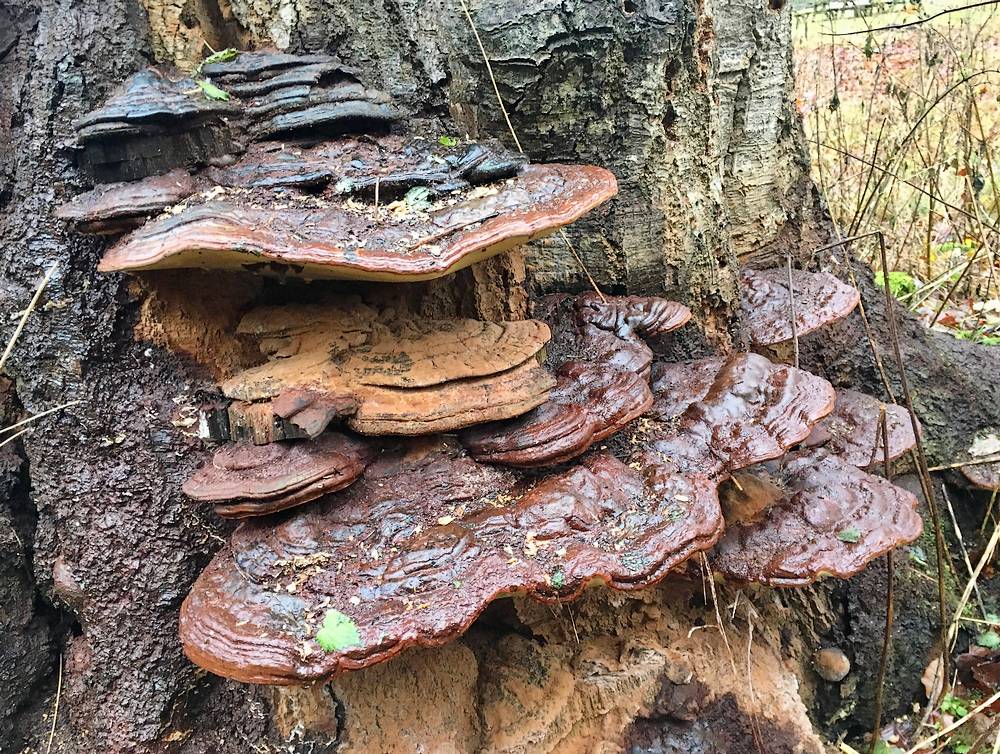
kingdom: Fungi
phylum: Basidiomycota
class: Agaricomycetes
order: Polyporales
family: Polyporaceae
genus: Ganoderma
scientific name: Ganoderma pfeifferi
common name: kobberrød lakporesvamp
